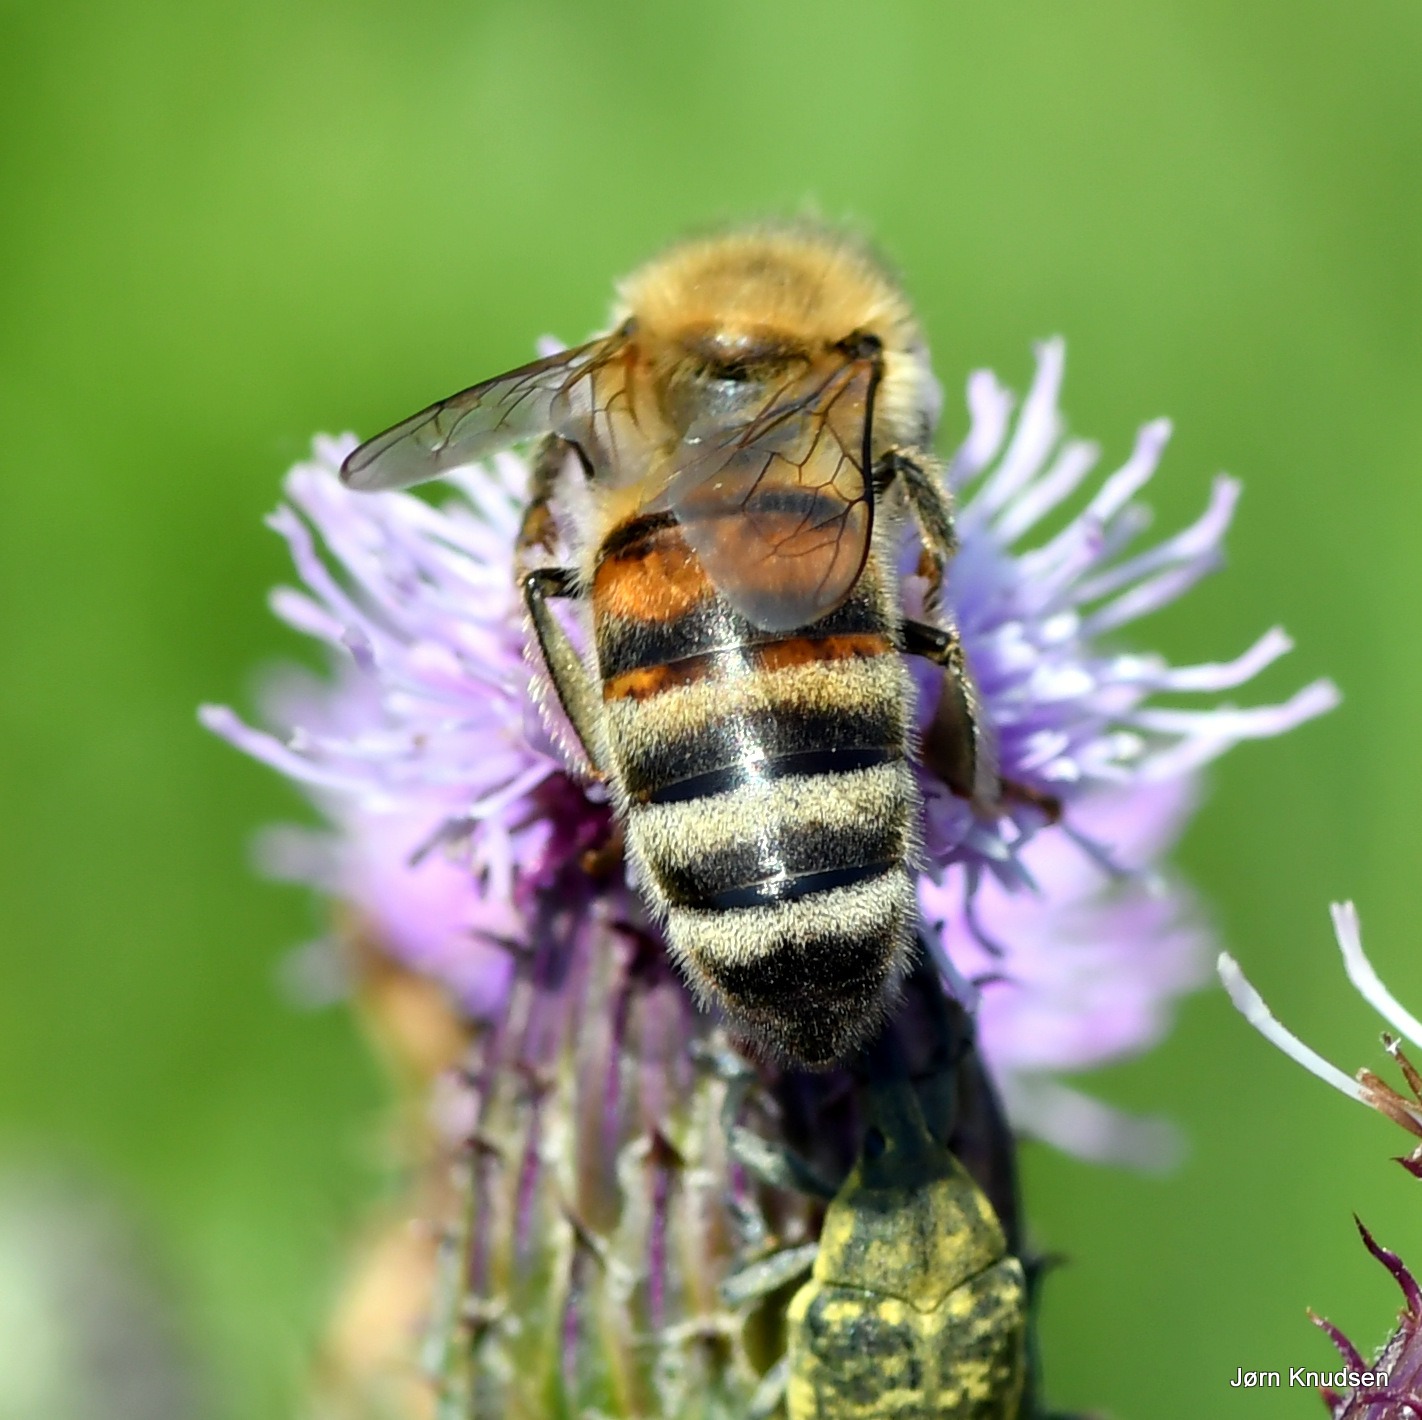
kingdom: Animalia
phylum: Arthropoda
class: Insecta
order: Hymenoptera
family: Apidae
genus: Apis
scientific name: Apis mellifera
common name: Honningbi
